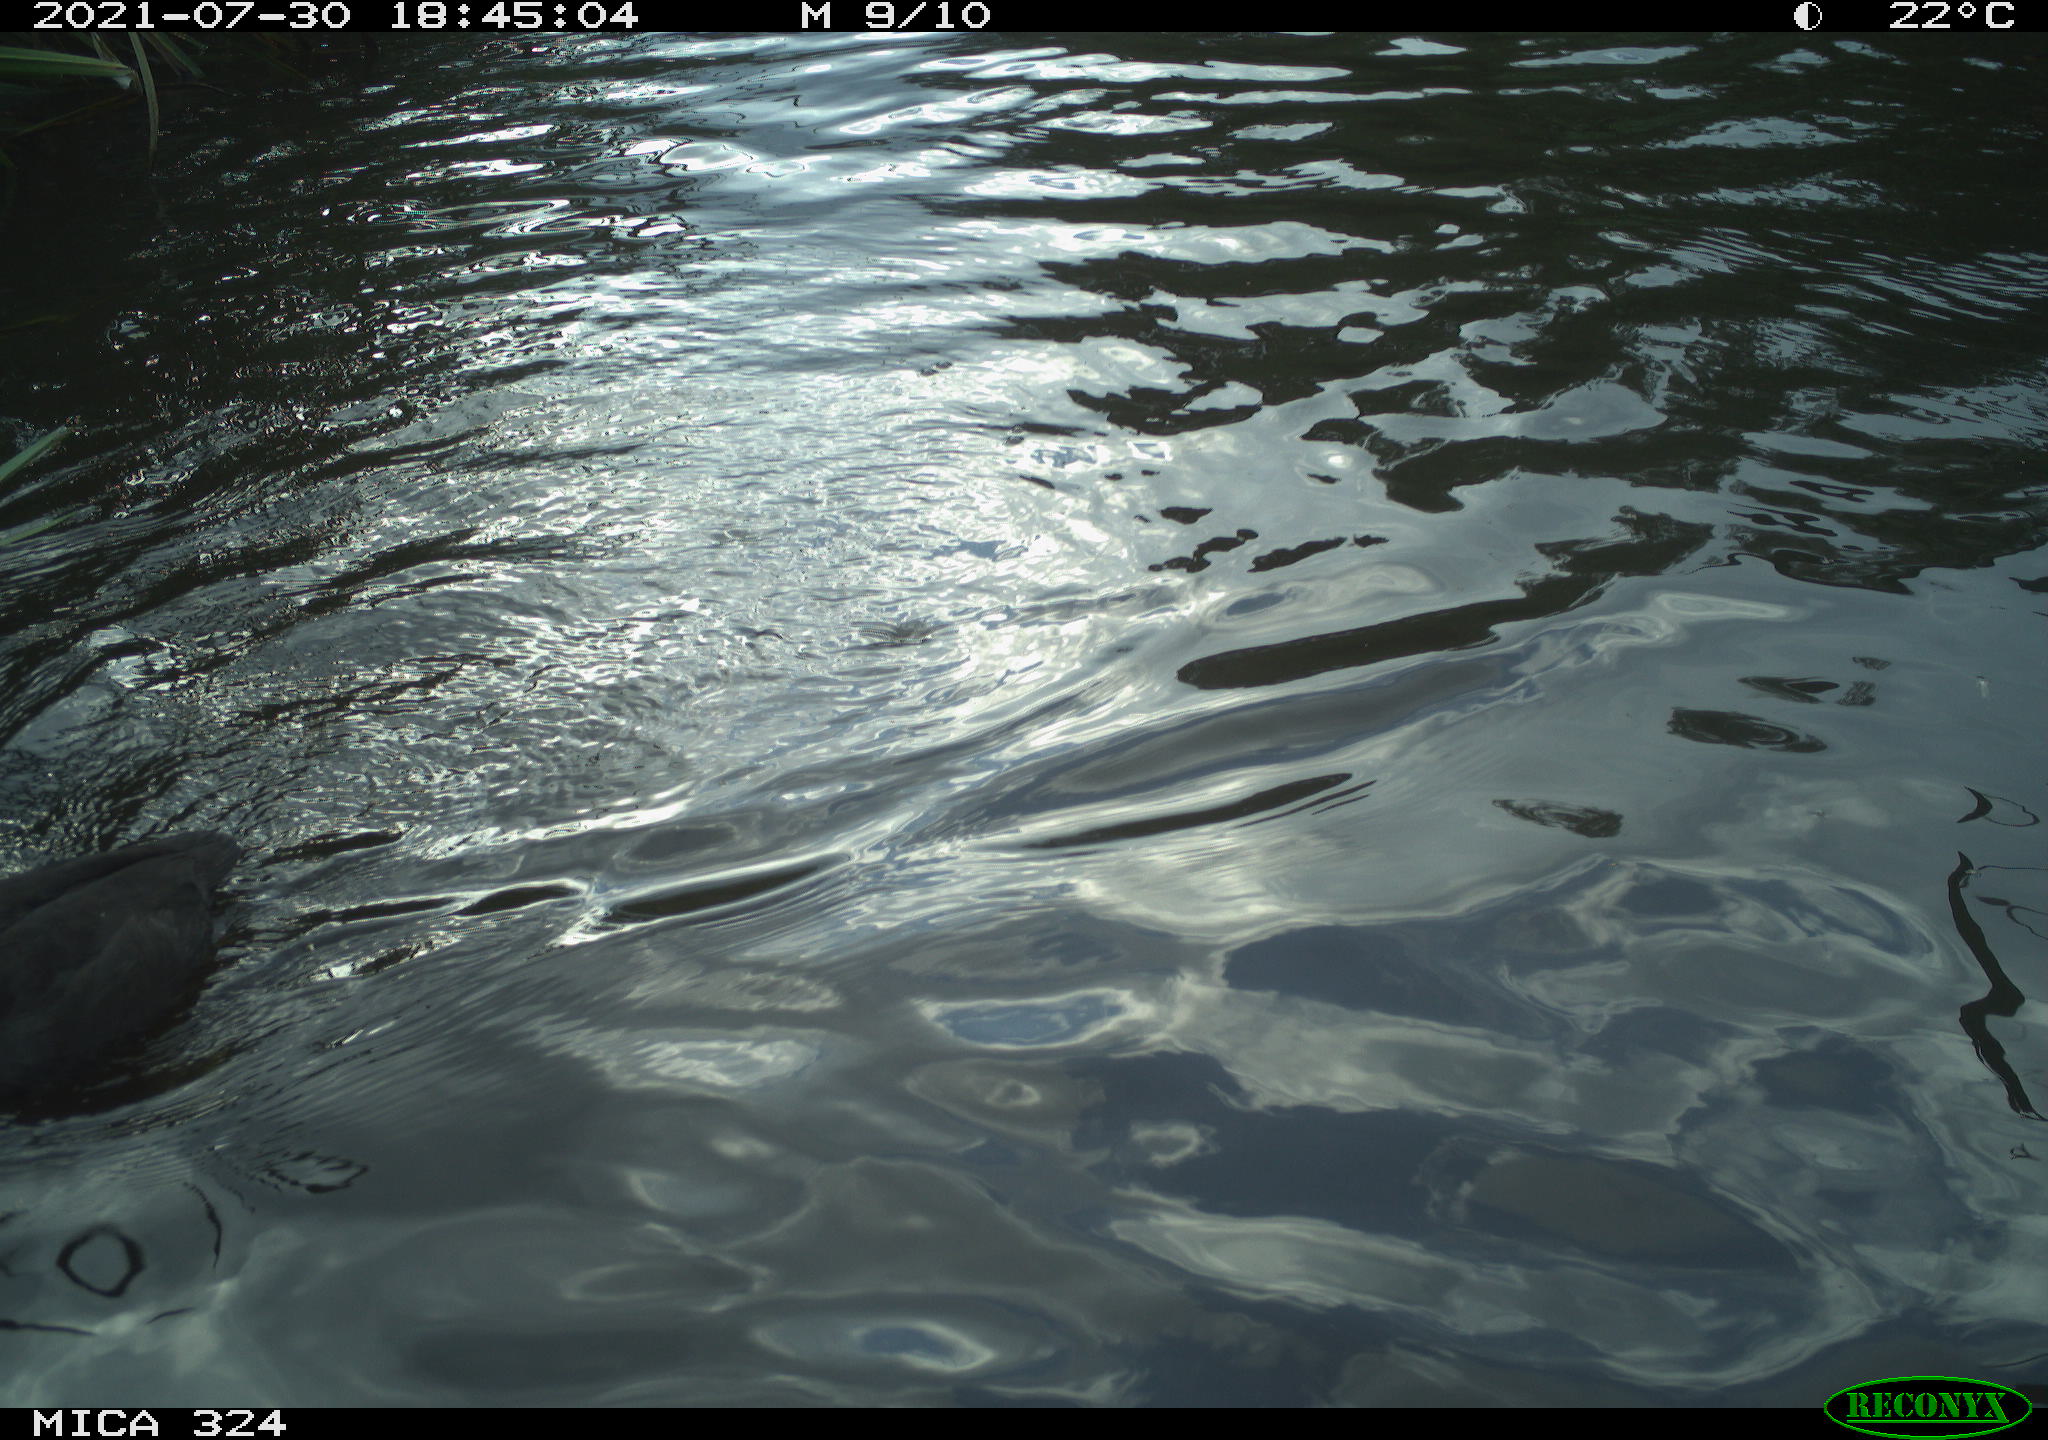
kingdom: Animalia
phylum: Chordata
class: Aves
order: Gruiformes
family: Rallidae
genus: Fulica
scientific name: Fulica atra
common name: Eurasian coot
